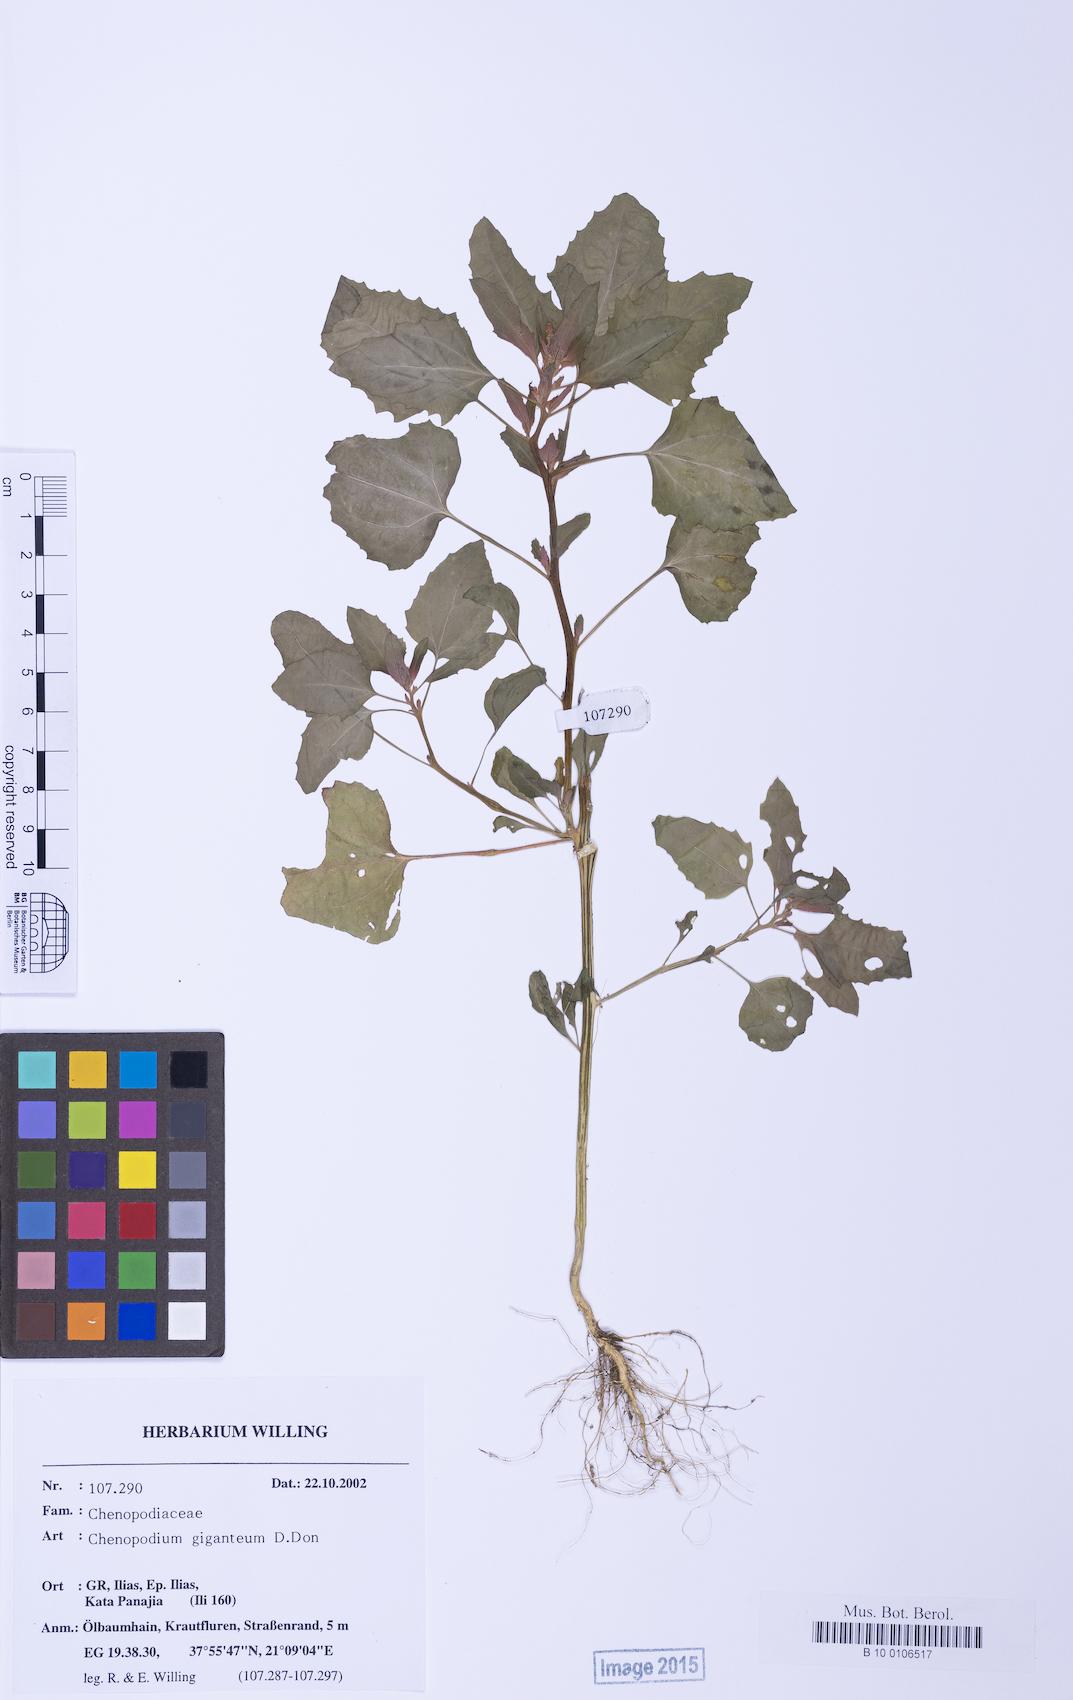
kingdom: Plantae
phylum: Tracheophyta
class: Magnoliopsida
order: Caryophyllales
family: Amaranthaceae
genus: Chenopodium
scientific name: Chenopodium giganteum
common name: Magentaspreen
